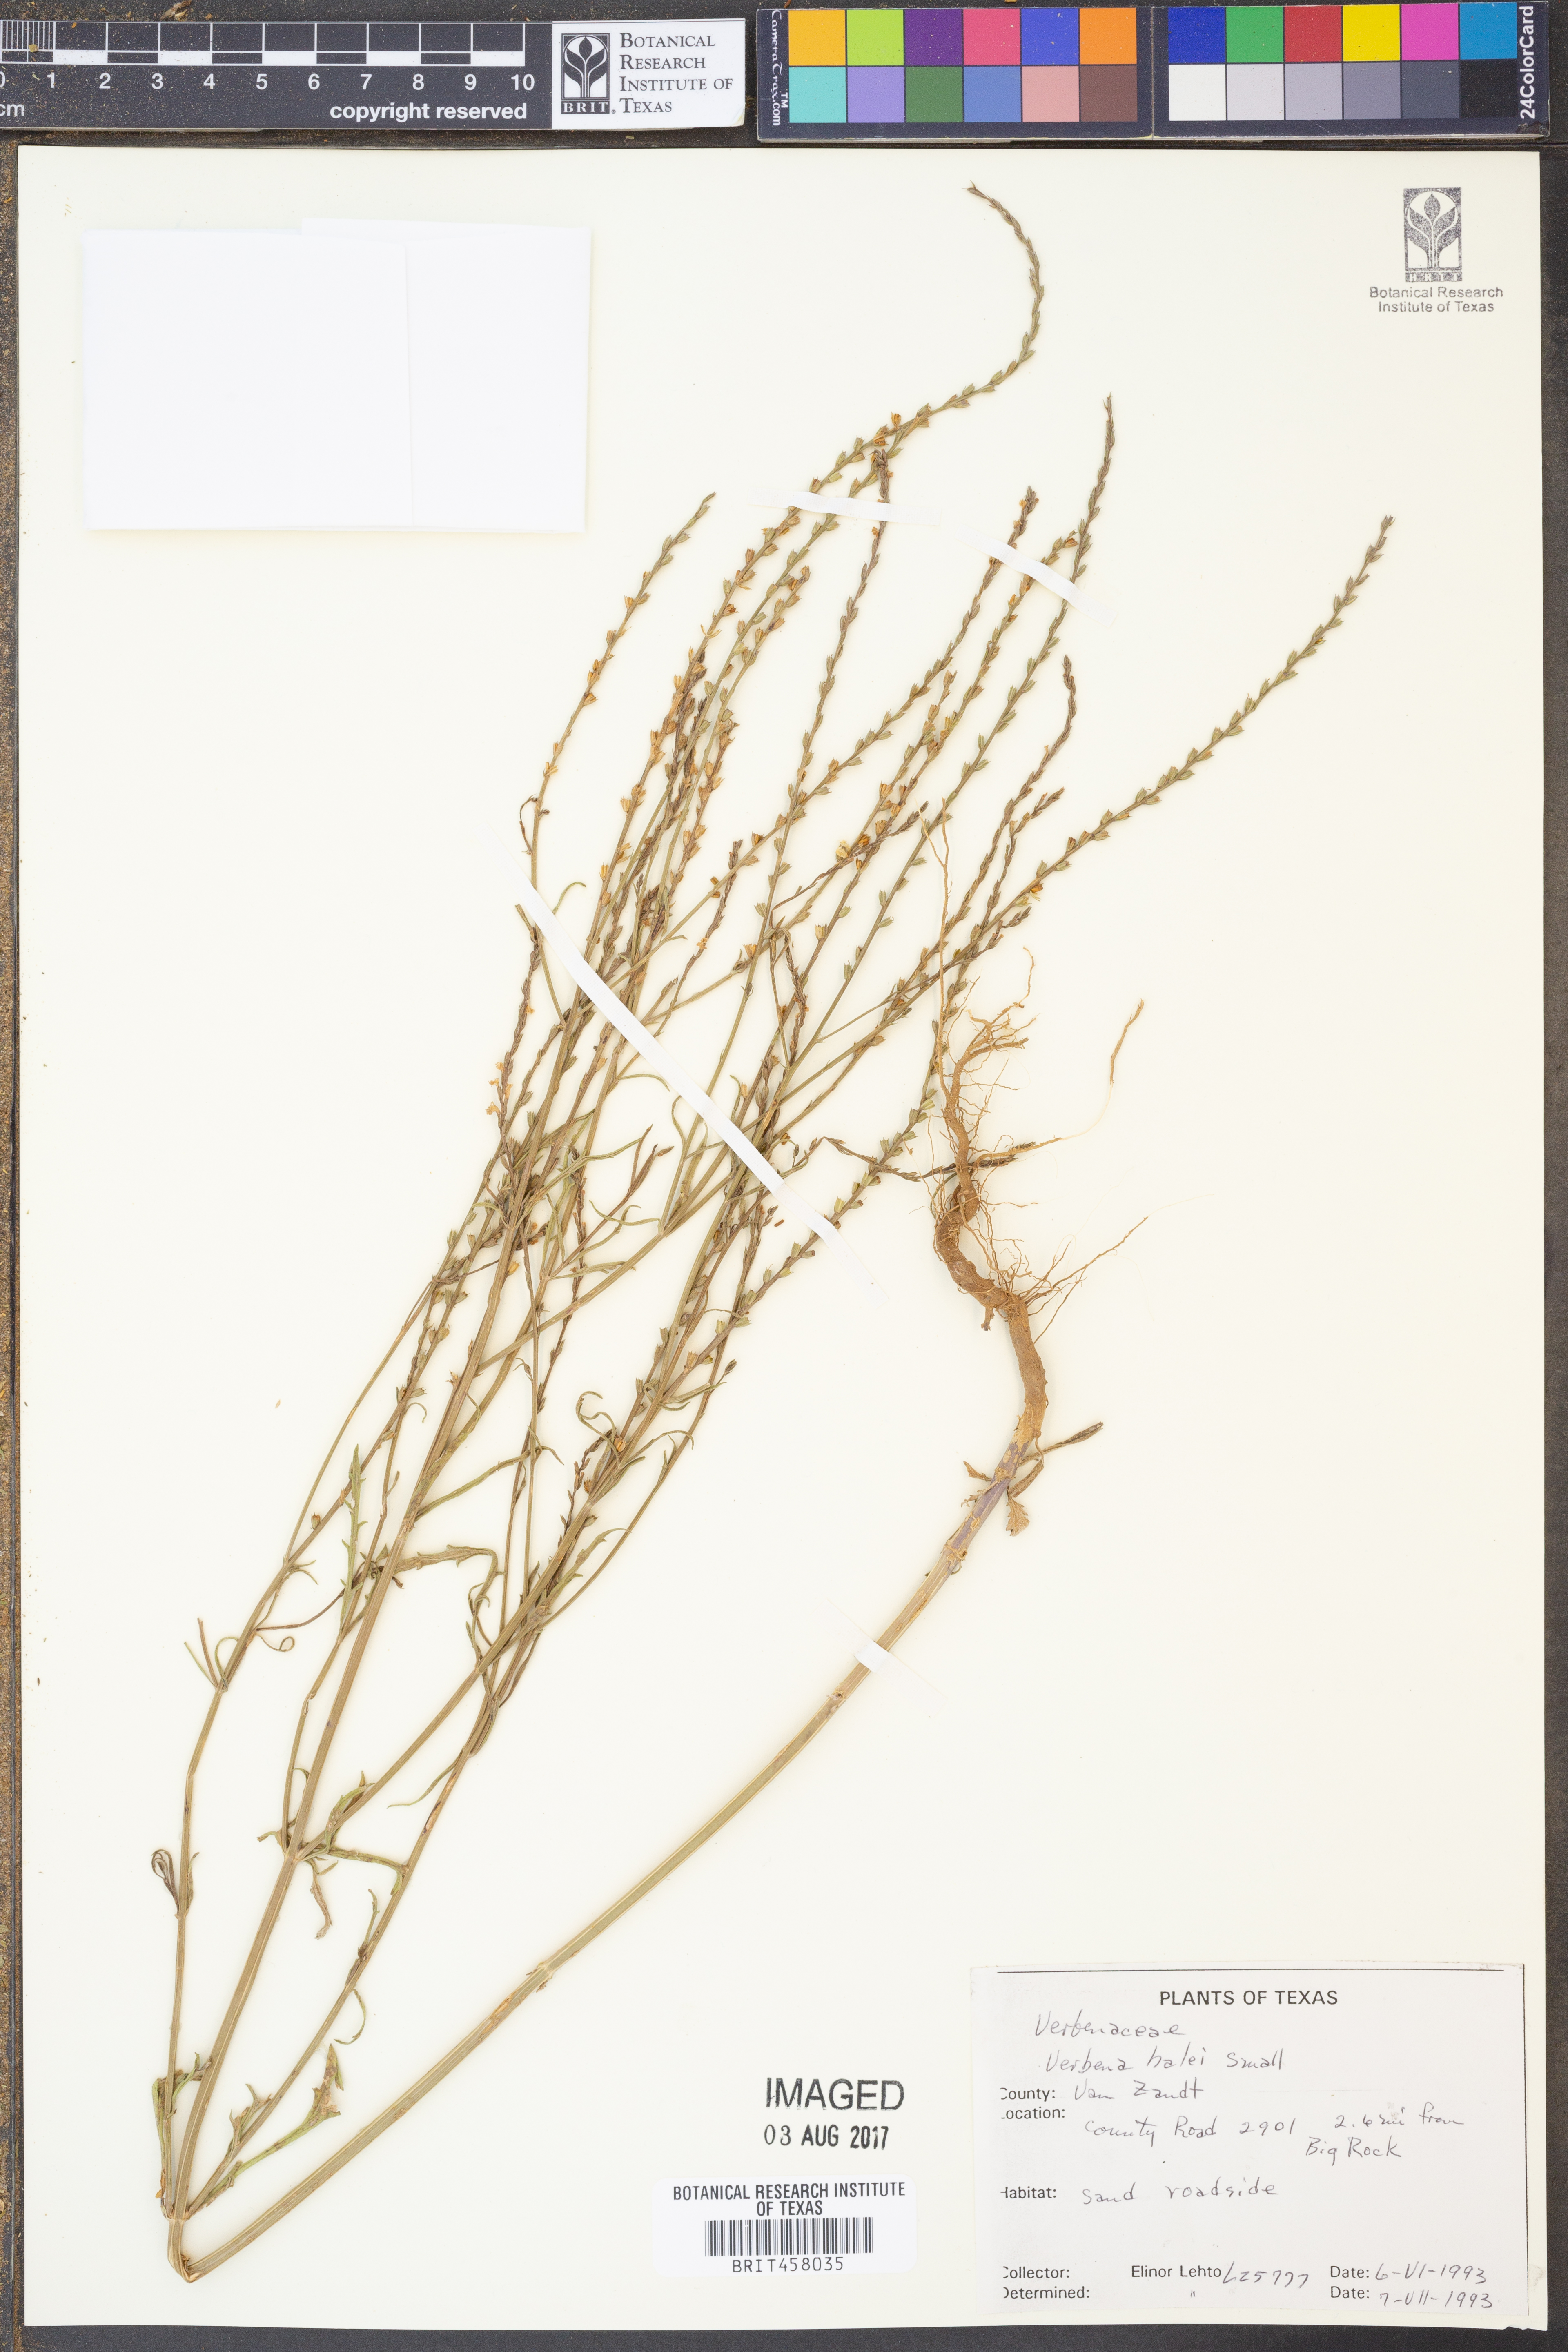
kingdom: Plantae
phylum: Tracheophyta
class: Magnoliopsida
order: Lamiales
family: Verbenaceae
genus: Verbena
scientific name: Verbena halei
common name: Texas vervain
